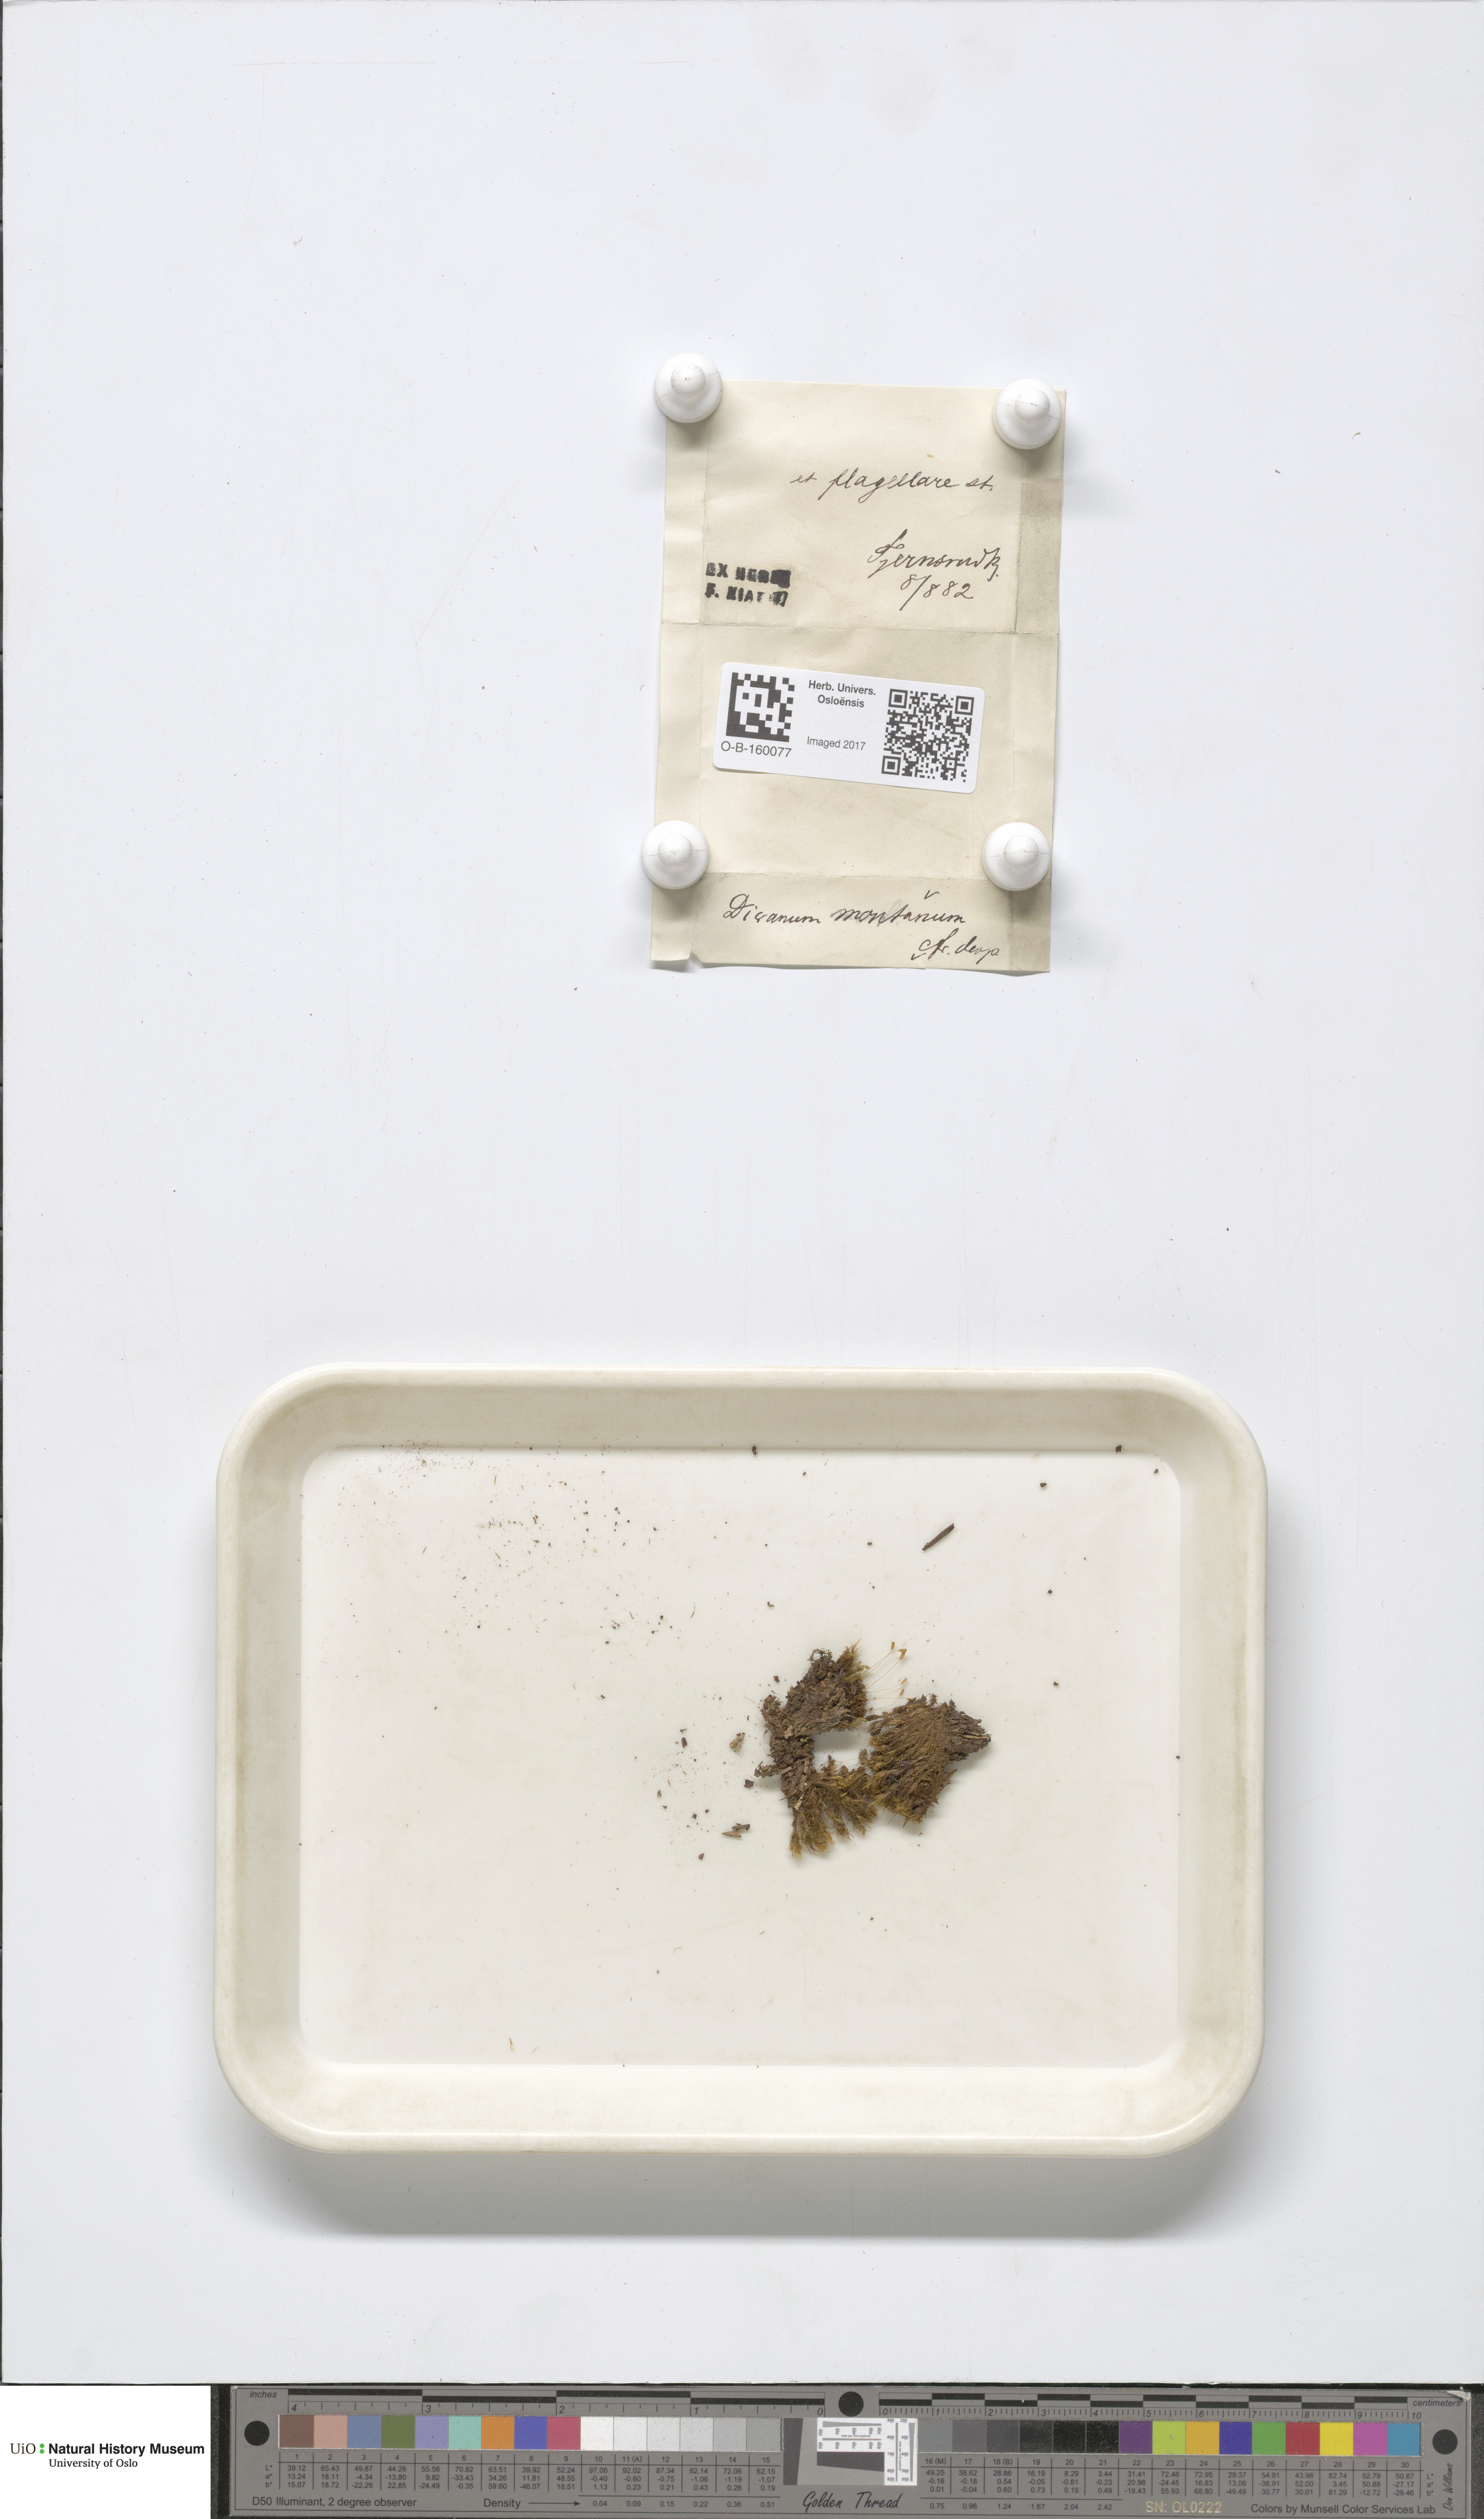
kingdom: Plantae
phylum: Bryophyta
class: Bryopsida
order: Dicranales
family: Dicranaceae
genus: Orthodicranum
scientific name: Orthodicranum flagellare
